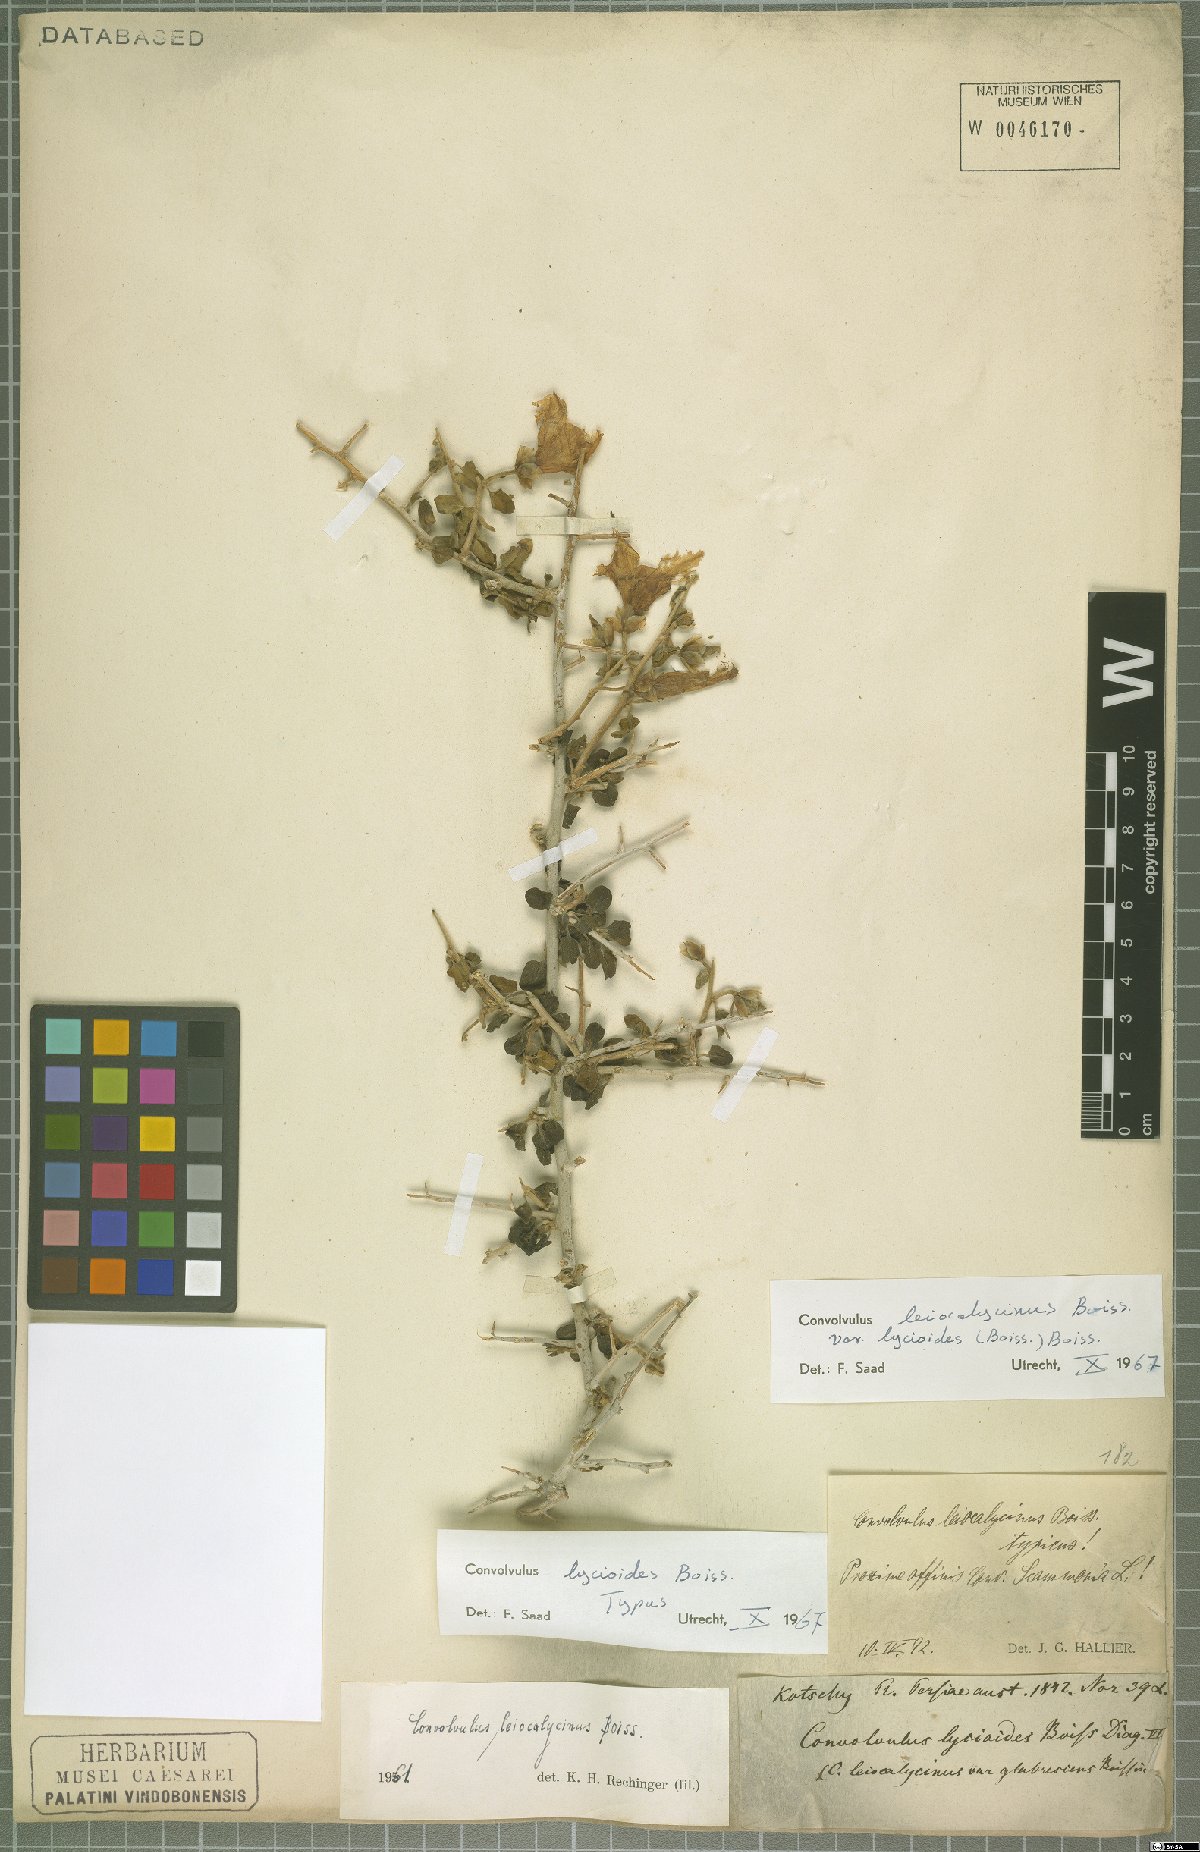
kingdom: Plantae
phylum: Tracheophyta
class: Magnoliopsida
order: Solanales
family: Convolvulaceae
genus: Convolvulus
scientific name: Convolvulus leiocalycinus
